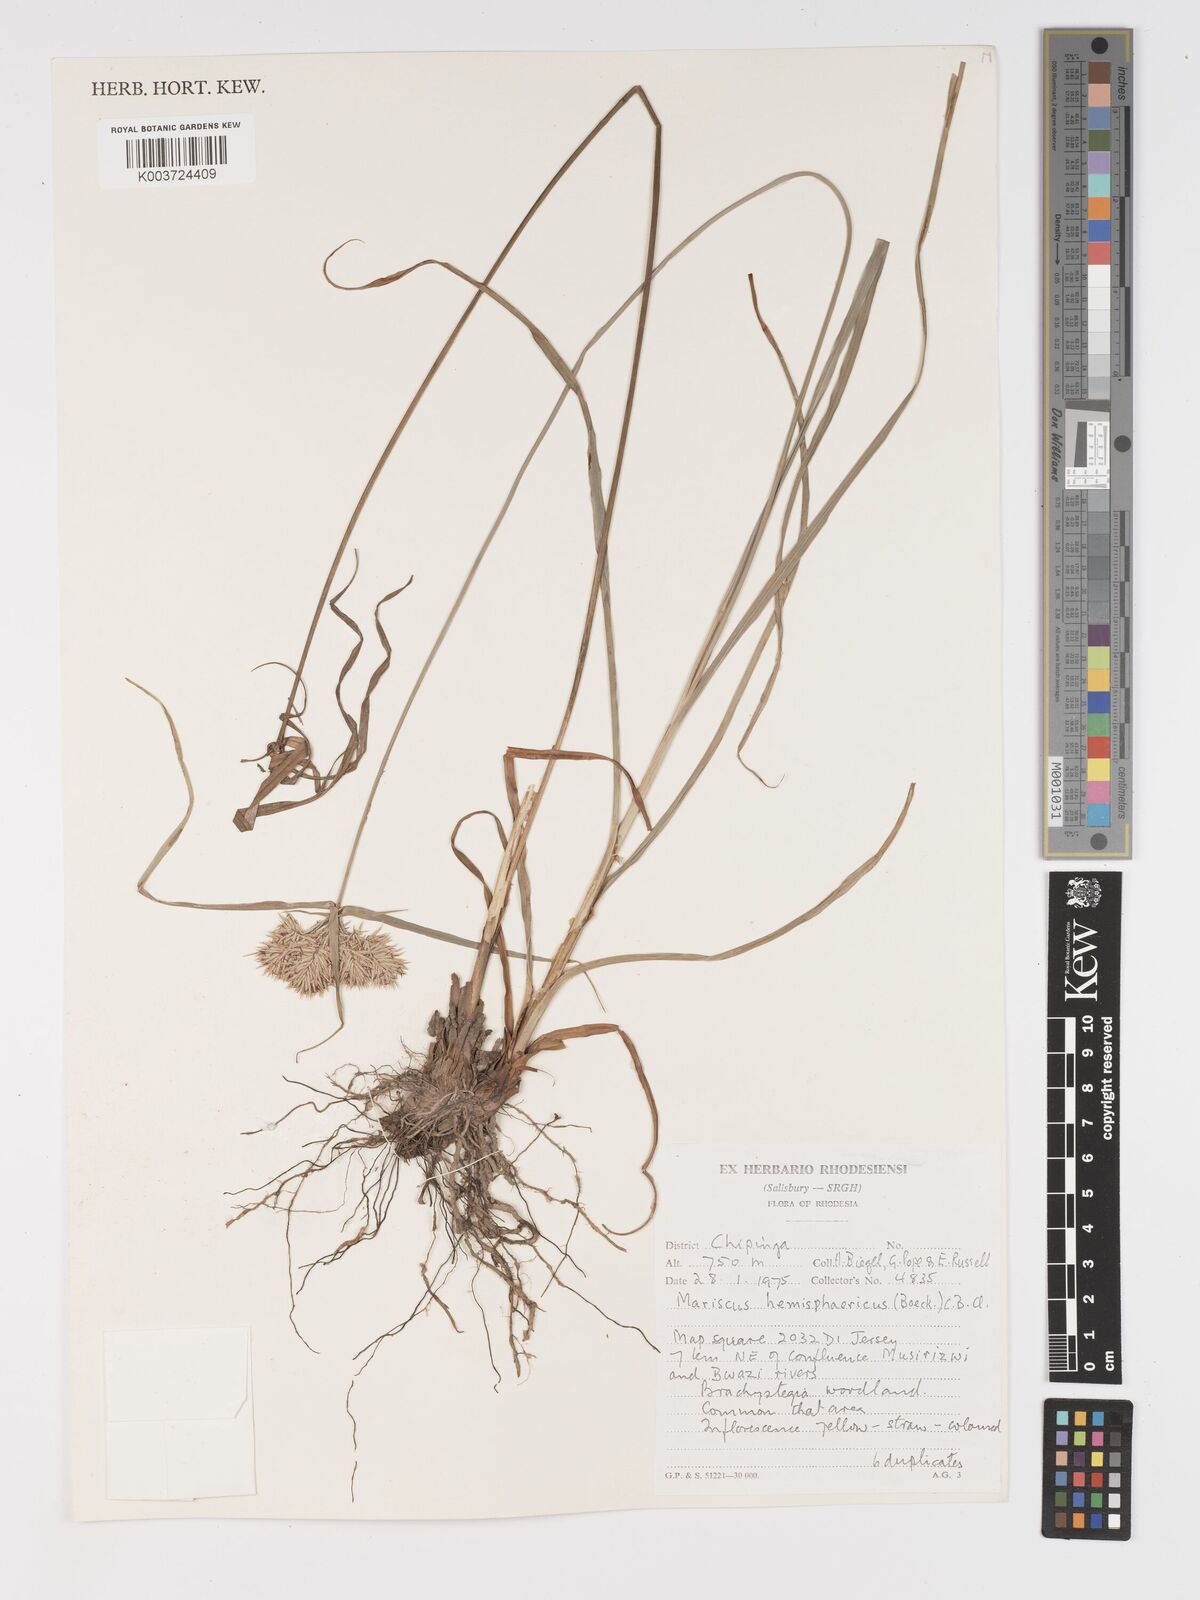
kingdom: Plantae
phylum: Tracheophyta
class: Liliopsida
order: Poales
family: Cyperaceae
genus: Cyperus
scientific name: Cyperus hemisphaericus
